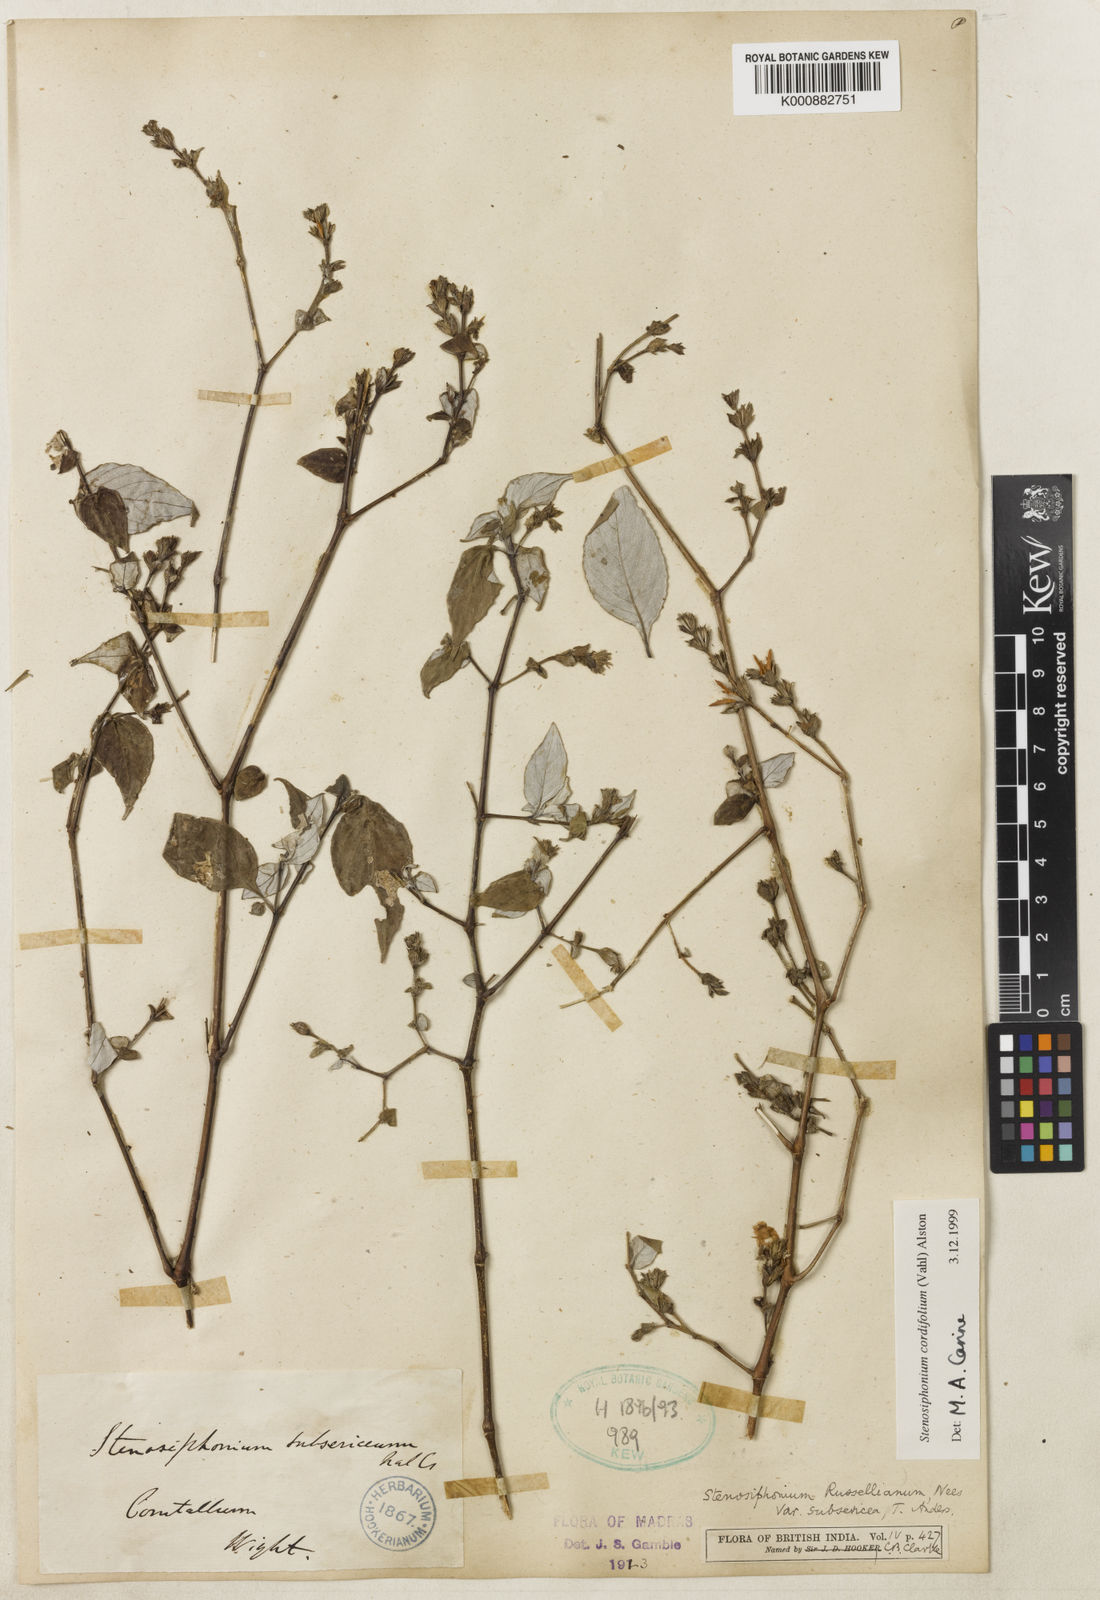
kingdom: Plantae
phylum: Tracheophyta
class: Magnoliopsida
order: Lamiales
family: Acanthaceae
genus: Strobilanthes
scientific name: Strobilanthes cordifolia
